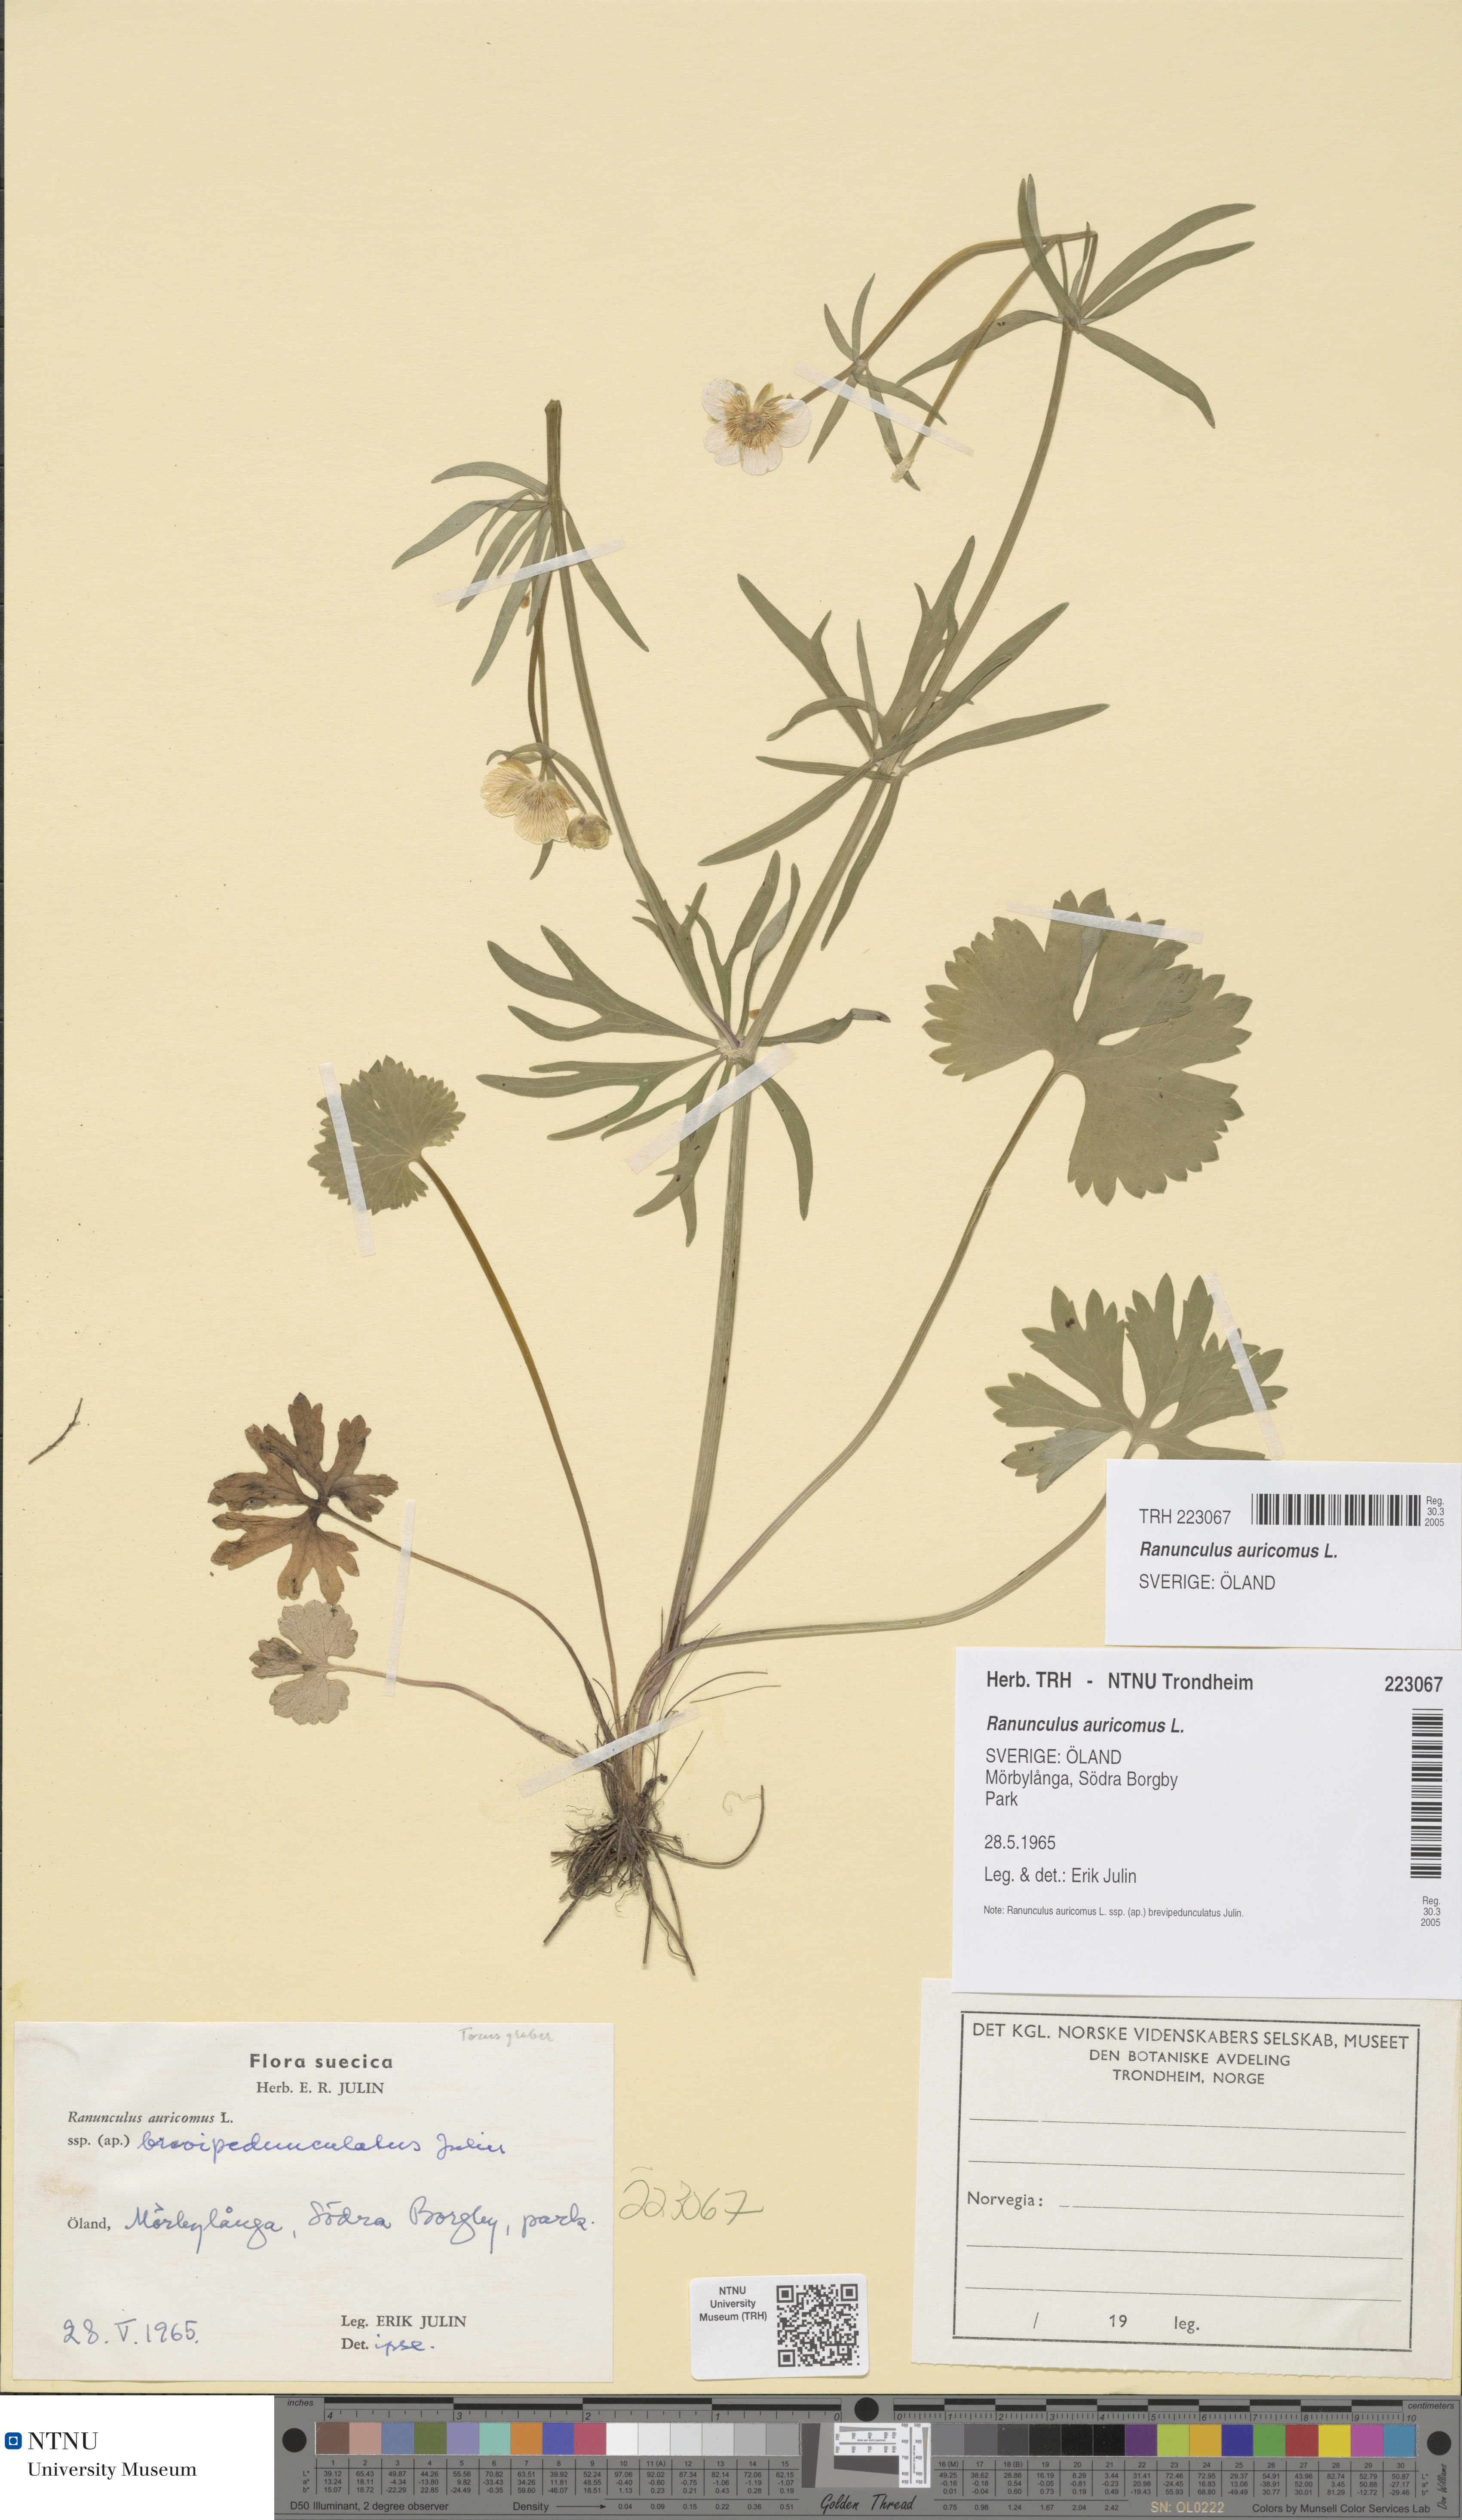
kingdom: Plantae
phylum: Tracheophyta
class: Magnoliopsida
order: Ranunculales
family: Ranunculaceae
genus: Ranunculus
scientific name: Ranunculus auricomus
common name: Goldilocks buttercup
